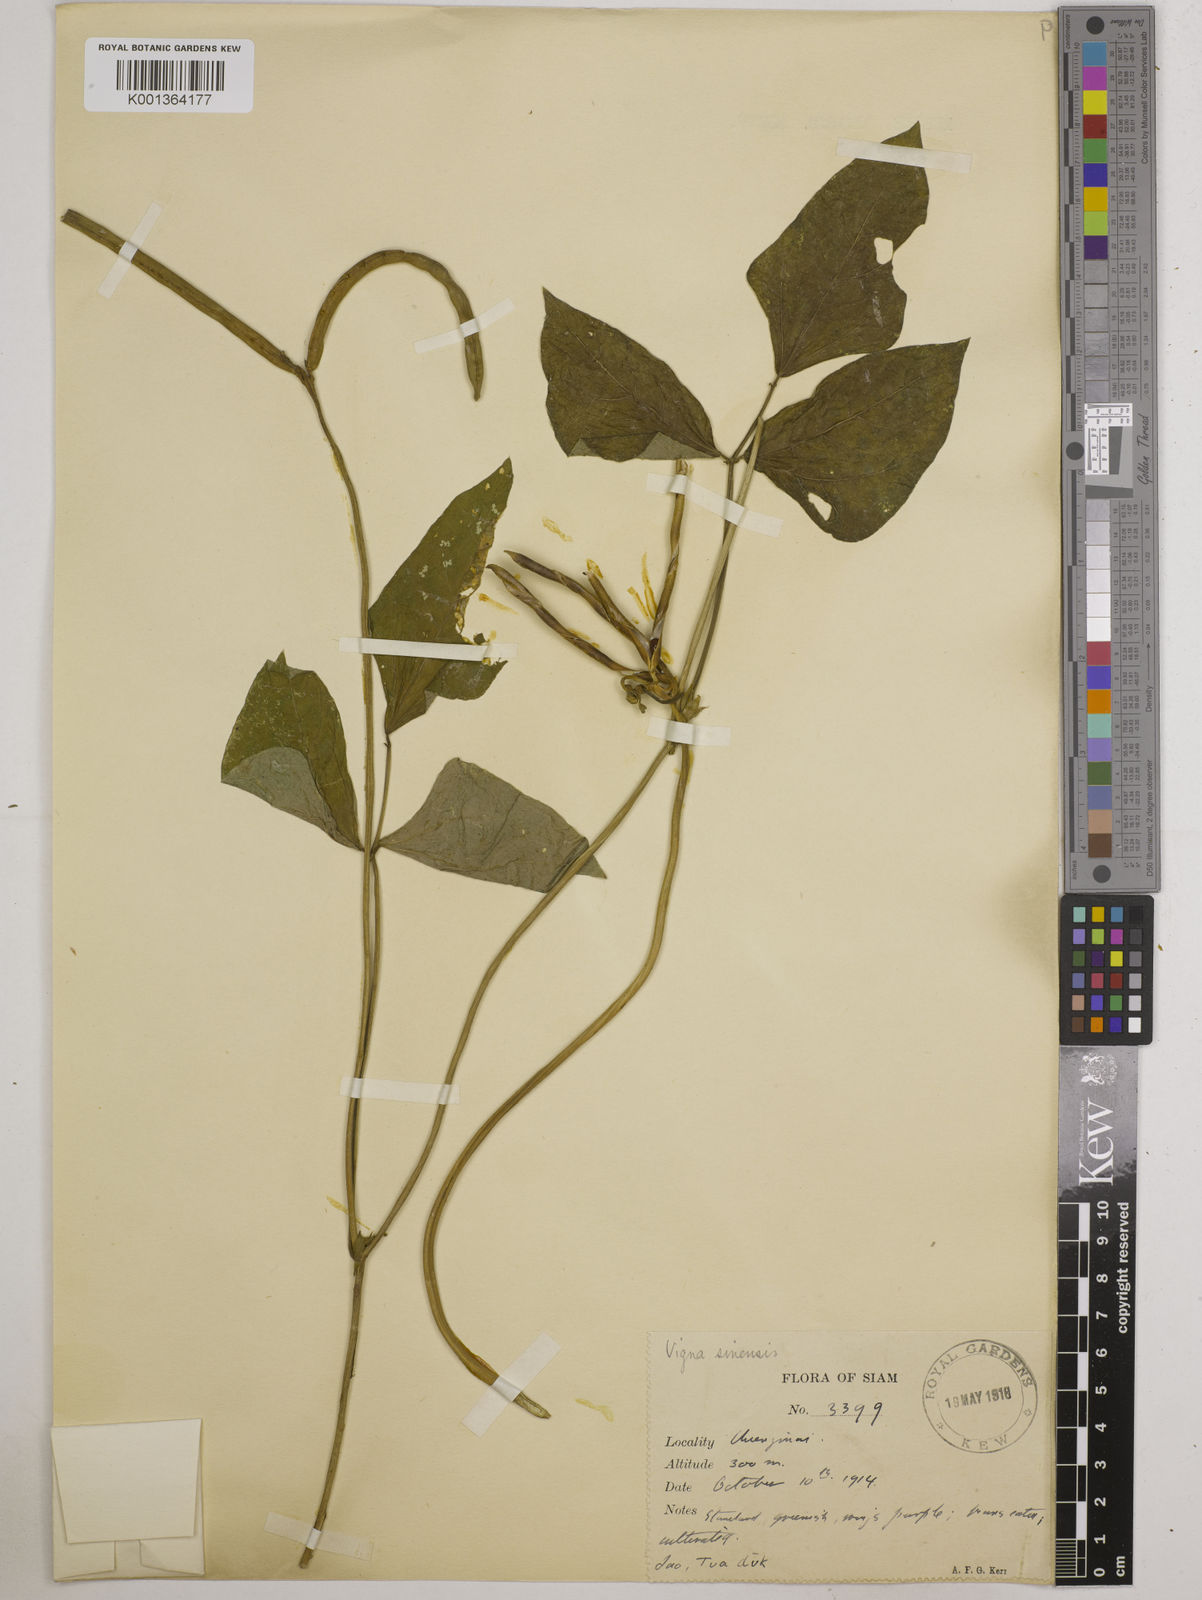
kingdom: Plantae
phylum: Tracheophyta
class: Magnoliopsida
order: Fabales
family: Fabaceae
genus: Vigna
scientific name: Vigna unguiculata
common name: Cowpea
